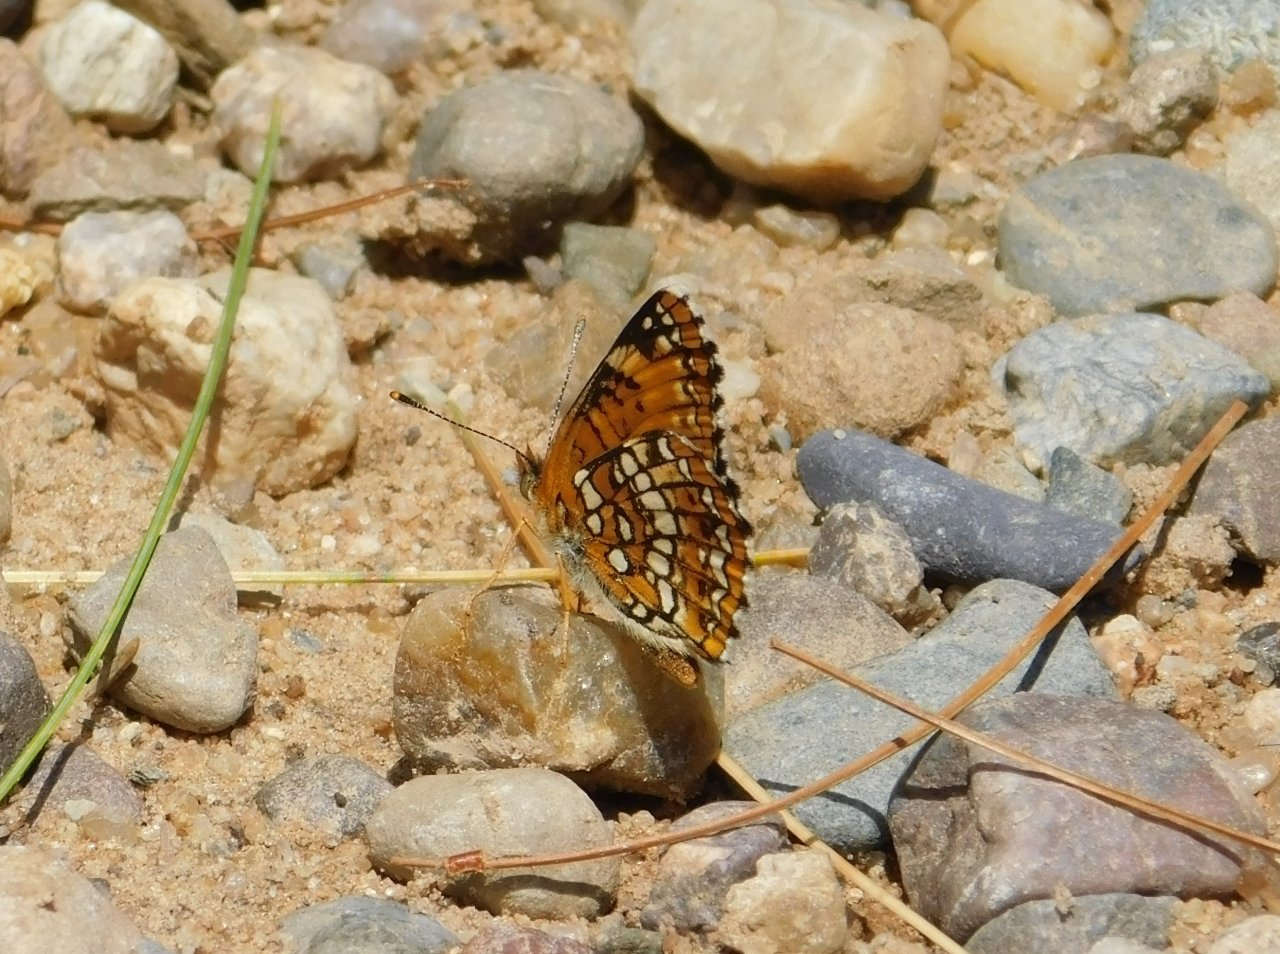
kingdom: Animalia
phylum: Arthropoda
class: Insecta
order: Lepidoptera
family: Nymphalidae
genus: Chlosyne
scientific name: Chlosyne harrisii
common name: Harris's Checkerspot
